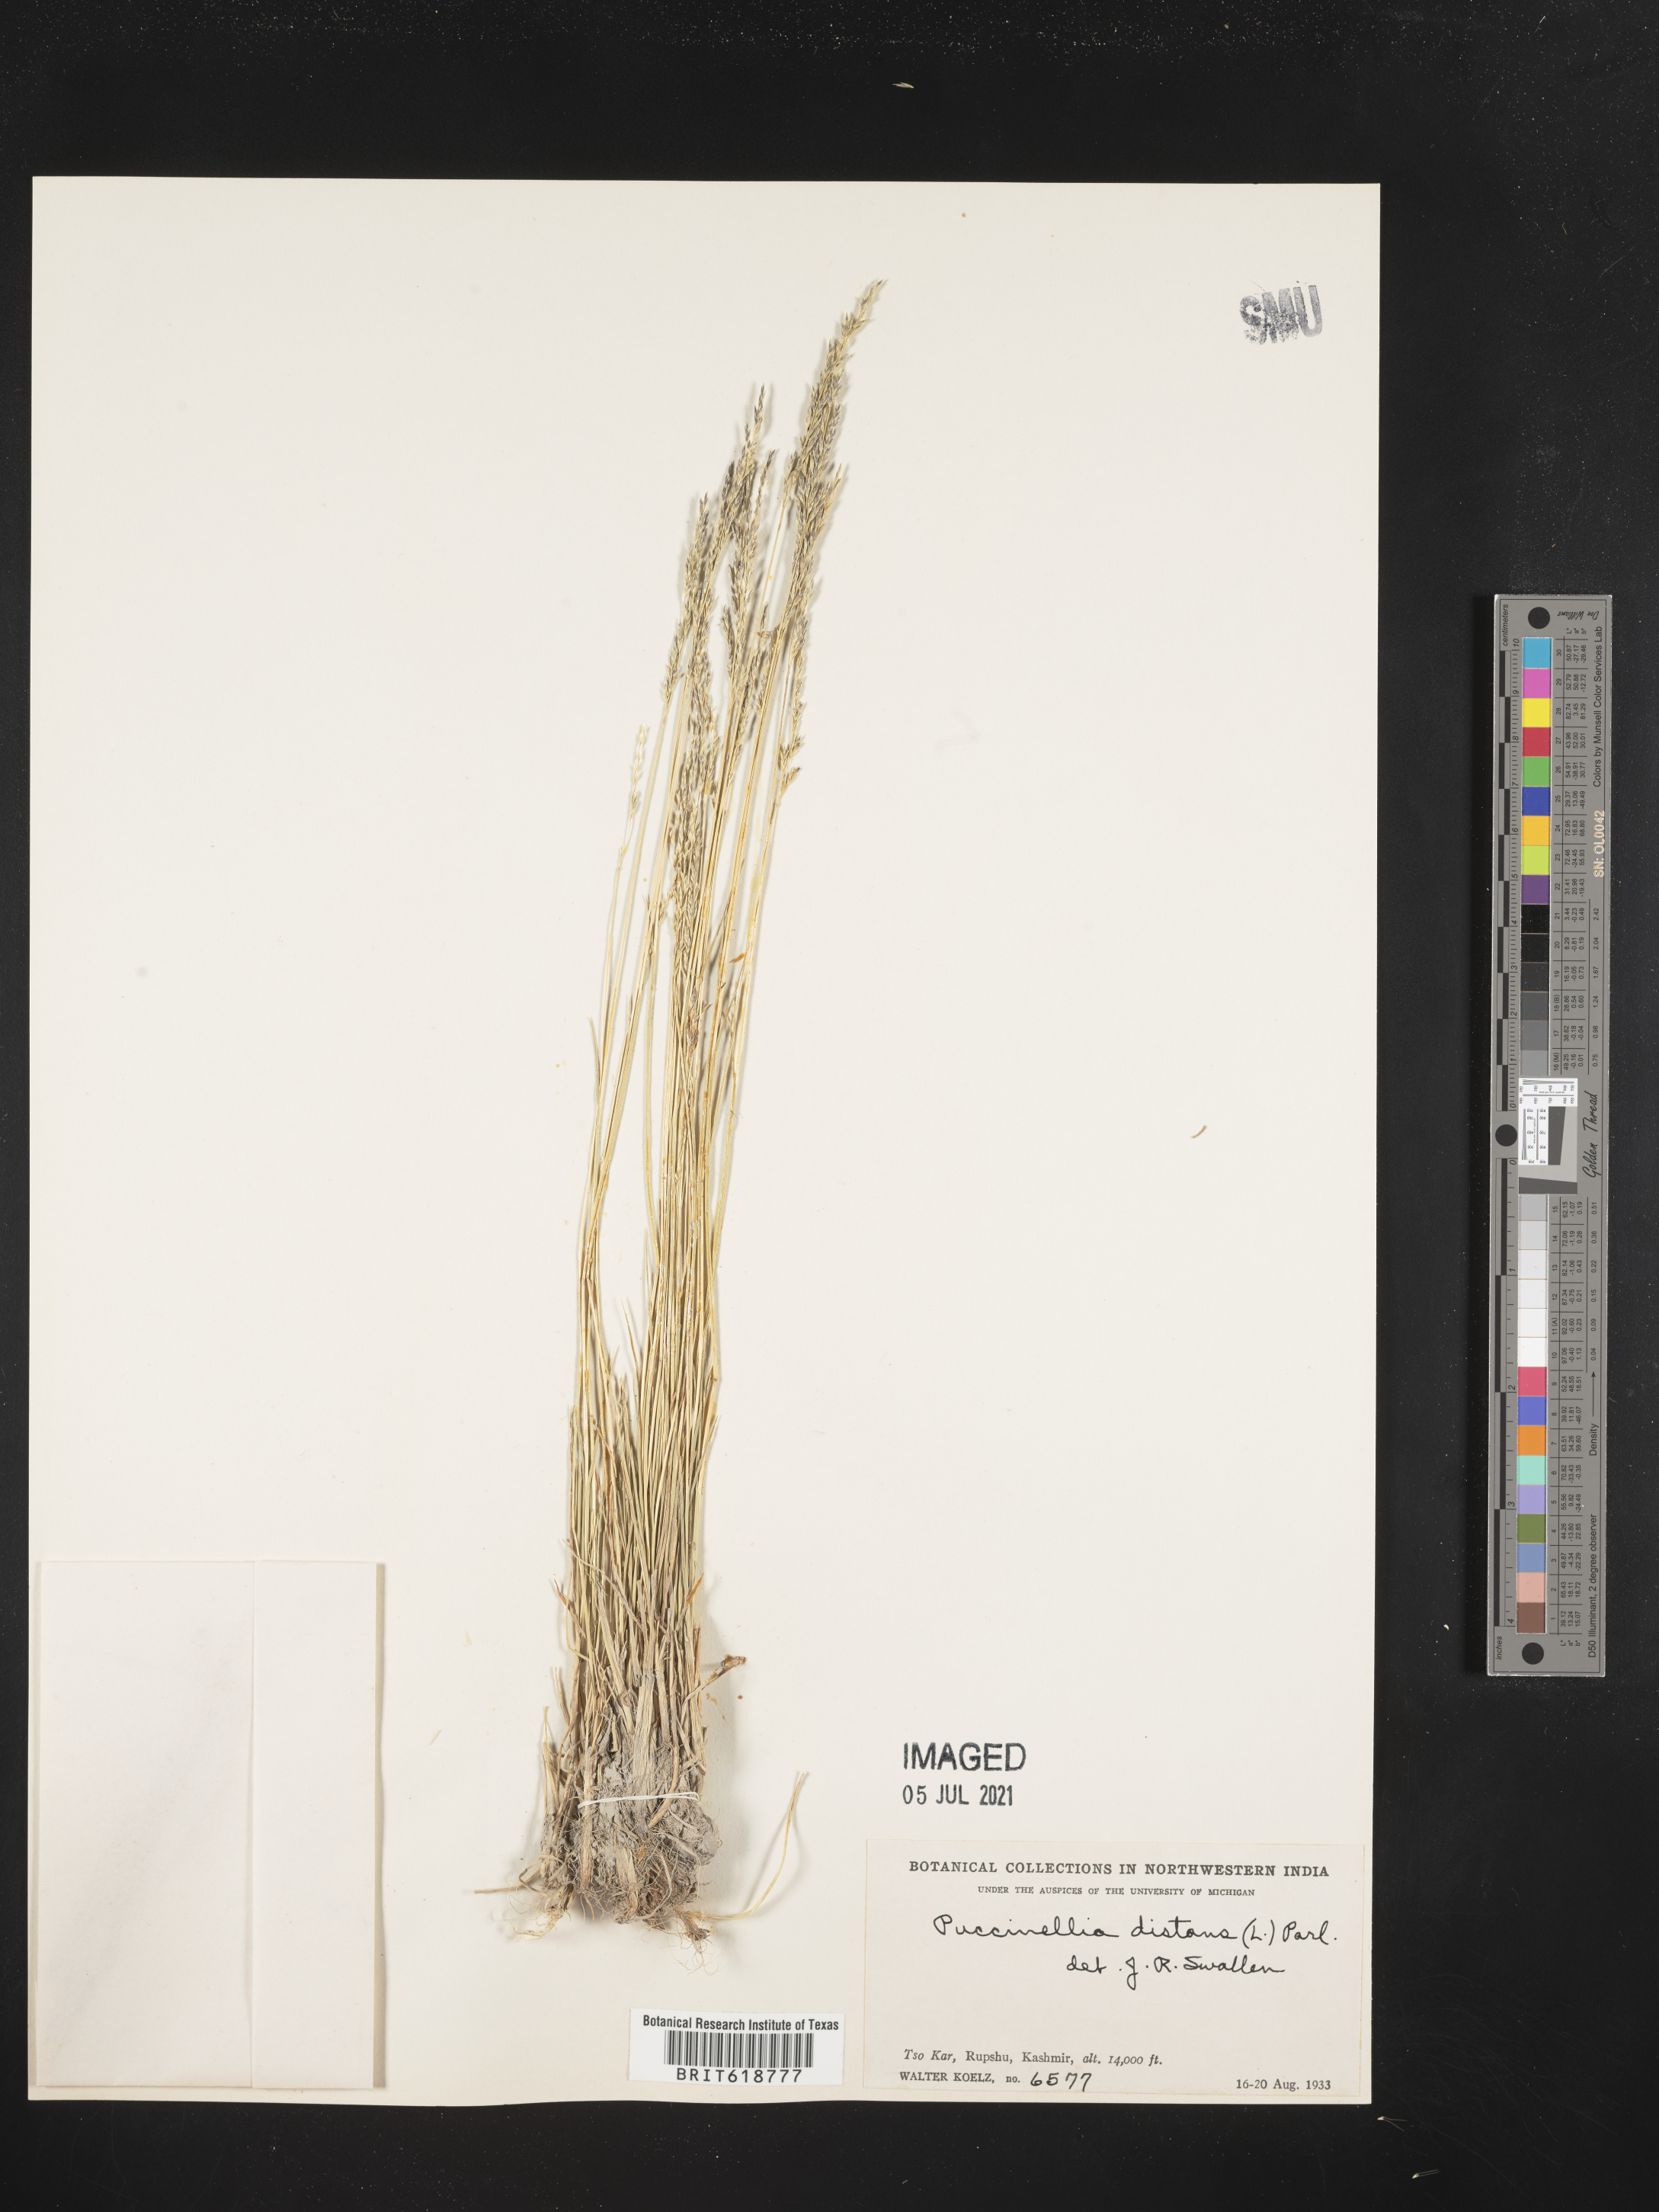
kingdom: Plantae
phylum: Tracheophyta
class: Liliopsida
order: Poales
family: Poaceae
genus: Puccinellia
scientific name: Puccinellia distans
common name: Weeping alkaligrass
